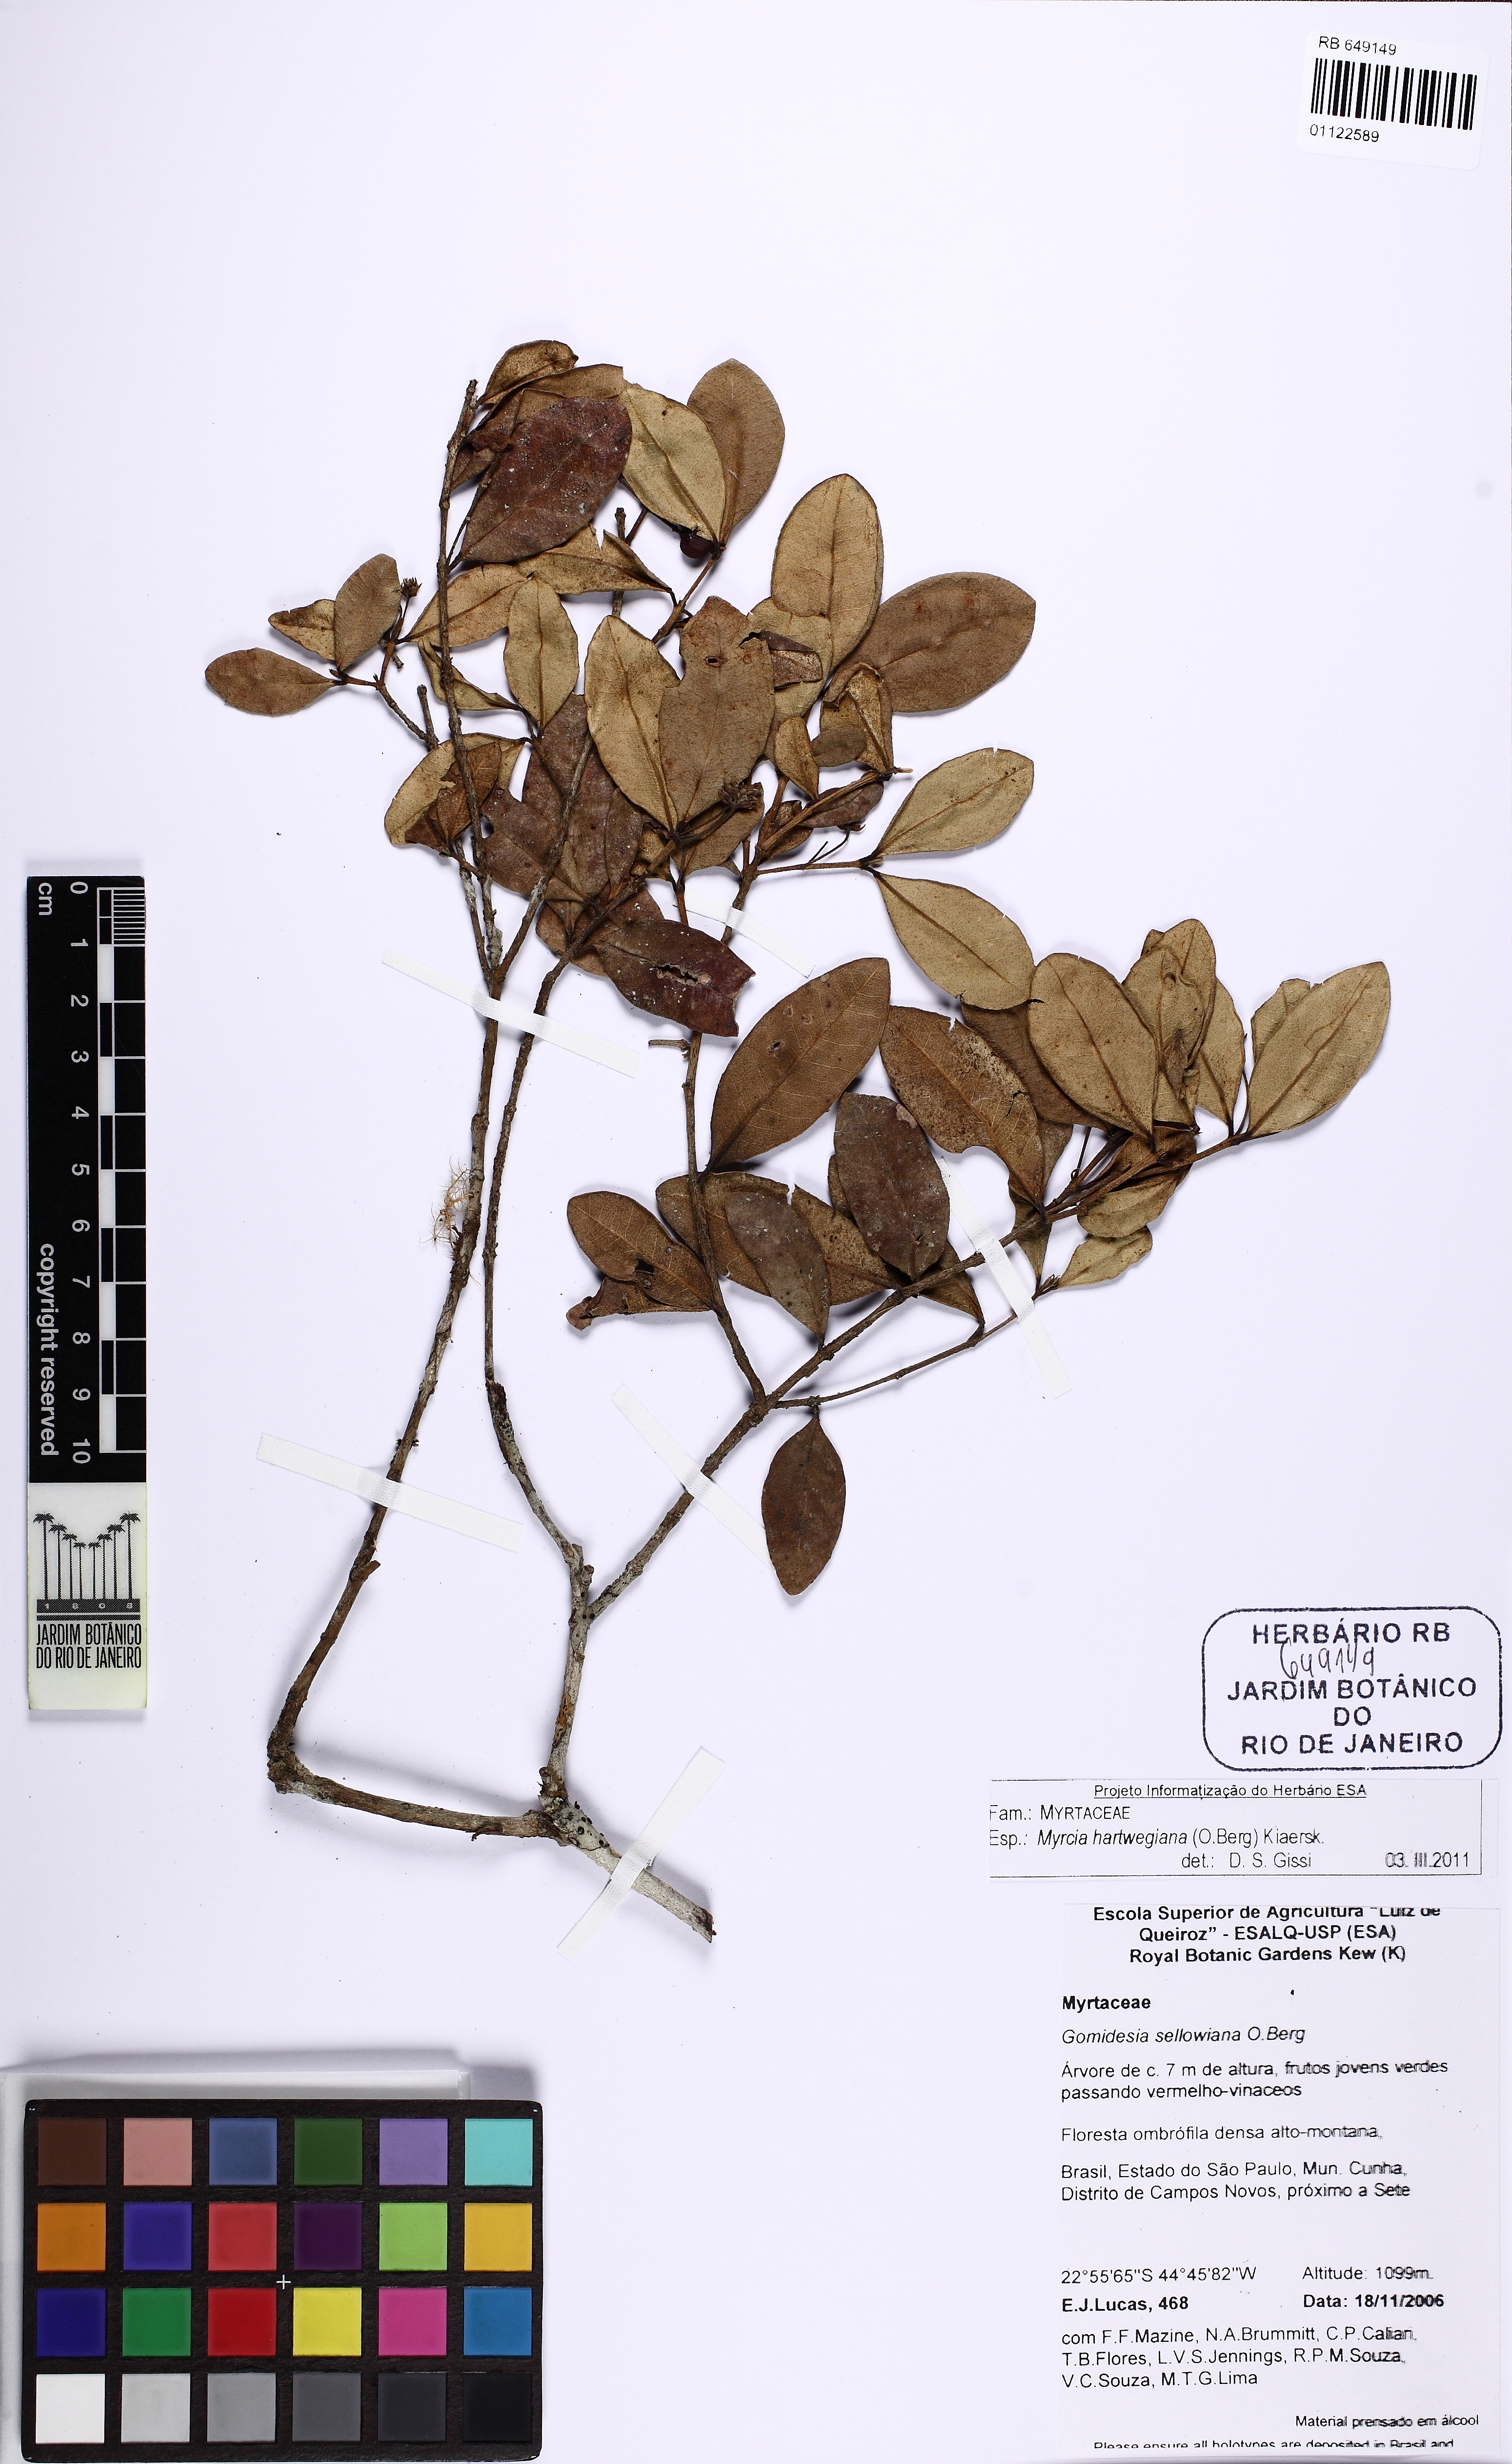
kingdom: Plantae
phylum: Tracheophyta
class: Magnoliopsida
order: Myrtales
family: Myrtaceae
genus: Myrcia
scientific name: Myrcia hartwegiana
